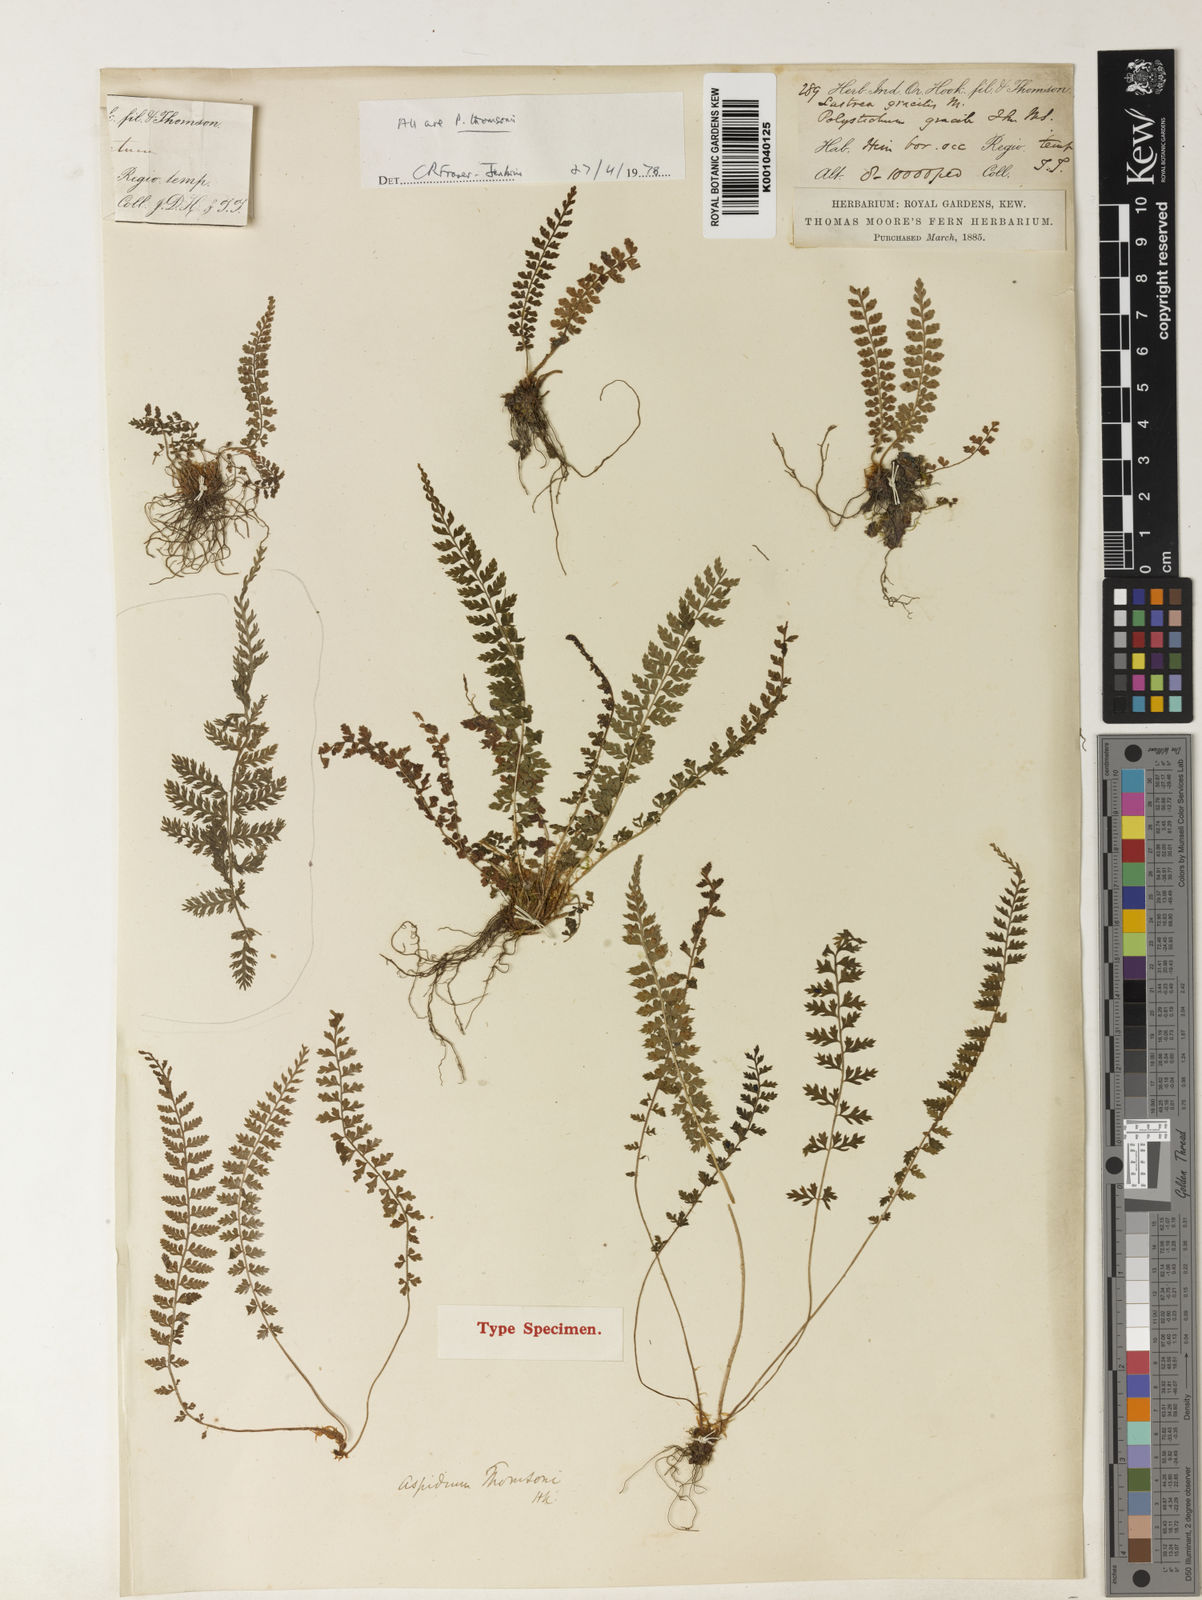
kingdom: Plantae
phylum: Tracheophyta
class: Polypodiopsida
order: Polypodiales
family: Dryopteridaceae
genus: Polystichum
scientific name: Polystichum thomsonii
